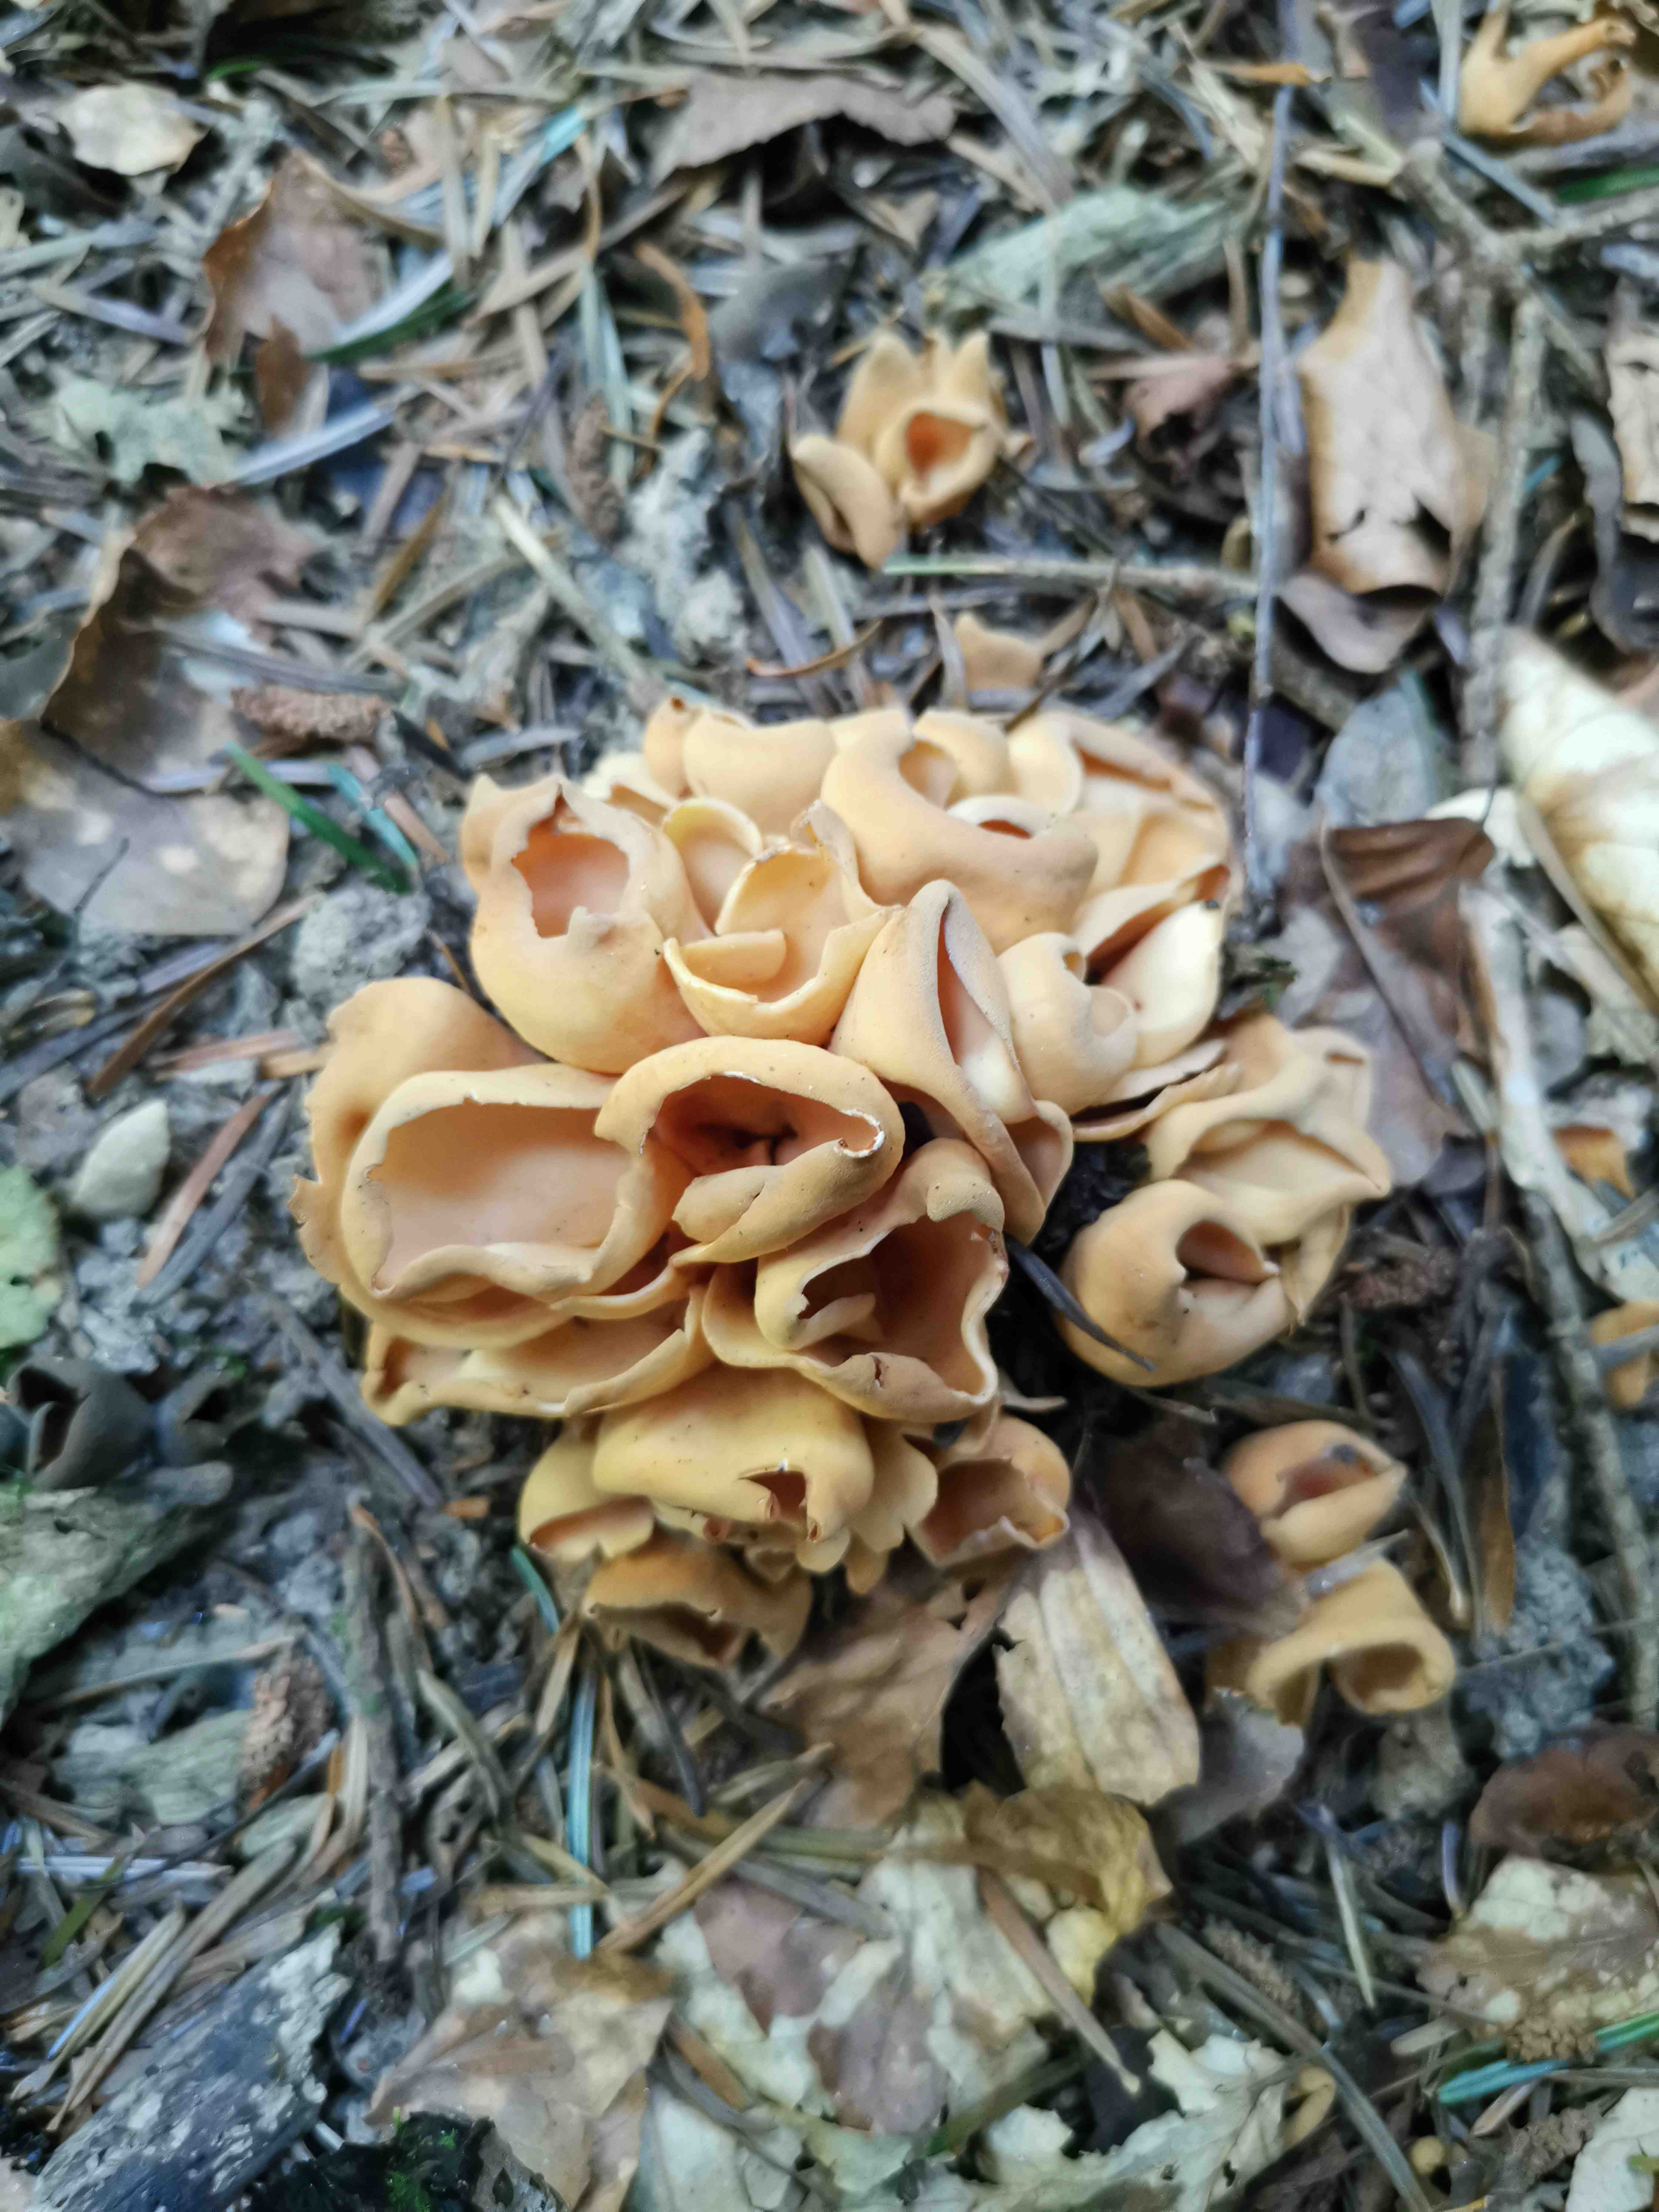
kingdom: Fungi
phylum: Ascomycota
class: Pezizomycetes
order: Pezizales
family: Otideaceae
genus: Otidea
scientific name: Otidea onotica
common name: æsel-ørebæger
